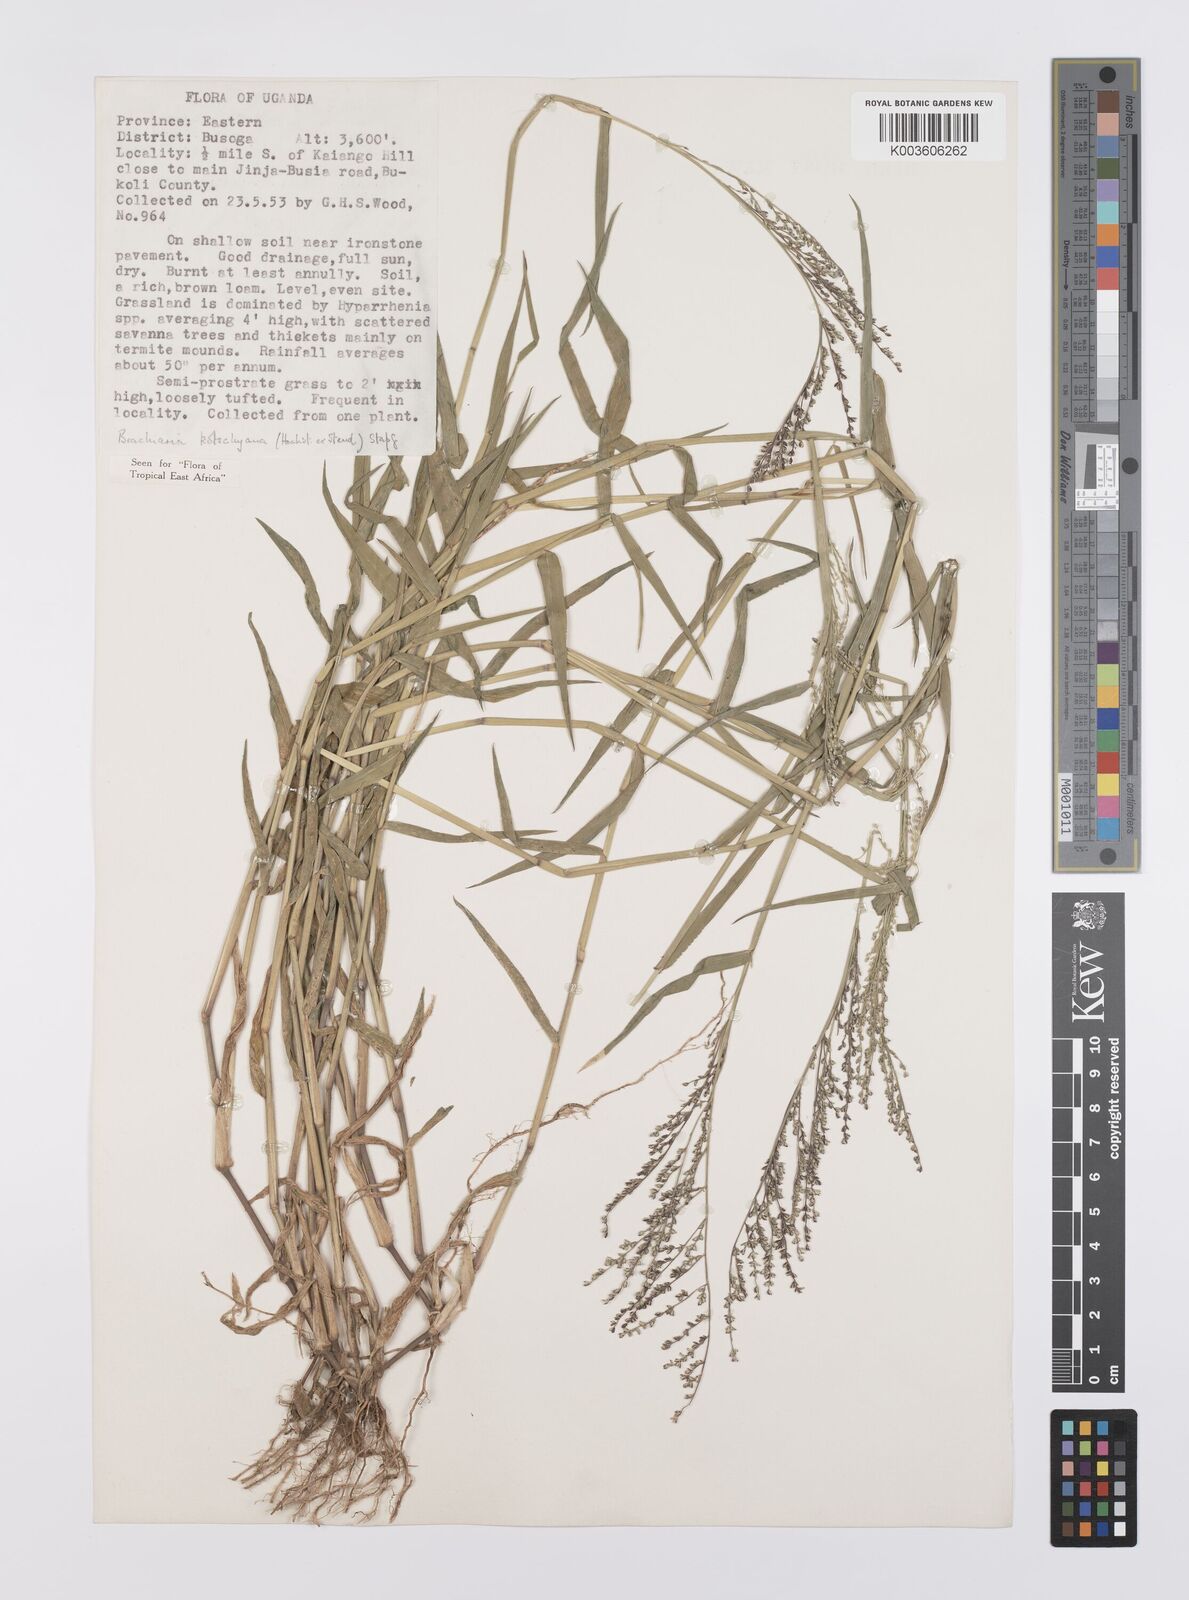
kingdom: Plantae
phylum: Tracheophyta
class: Liliopsida
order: Poales
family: Poaceae
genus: Urochloa
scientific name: Urochloa comata
